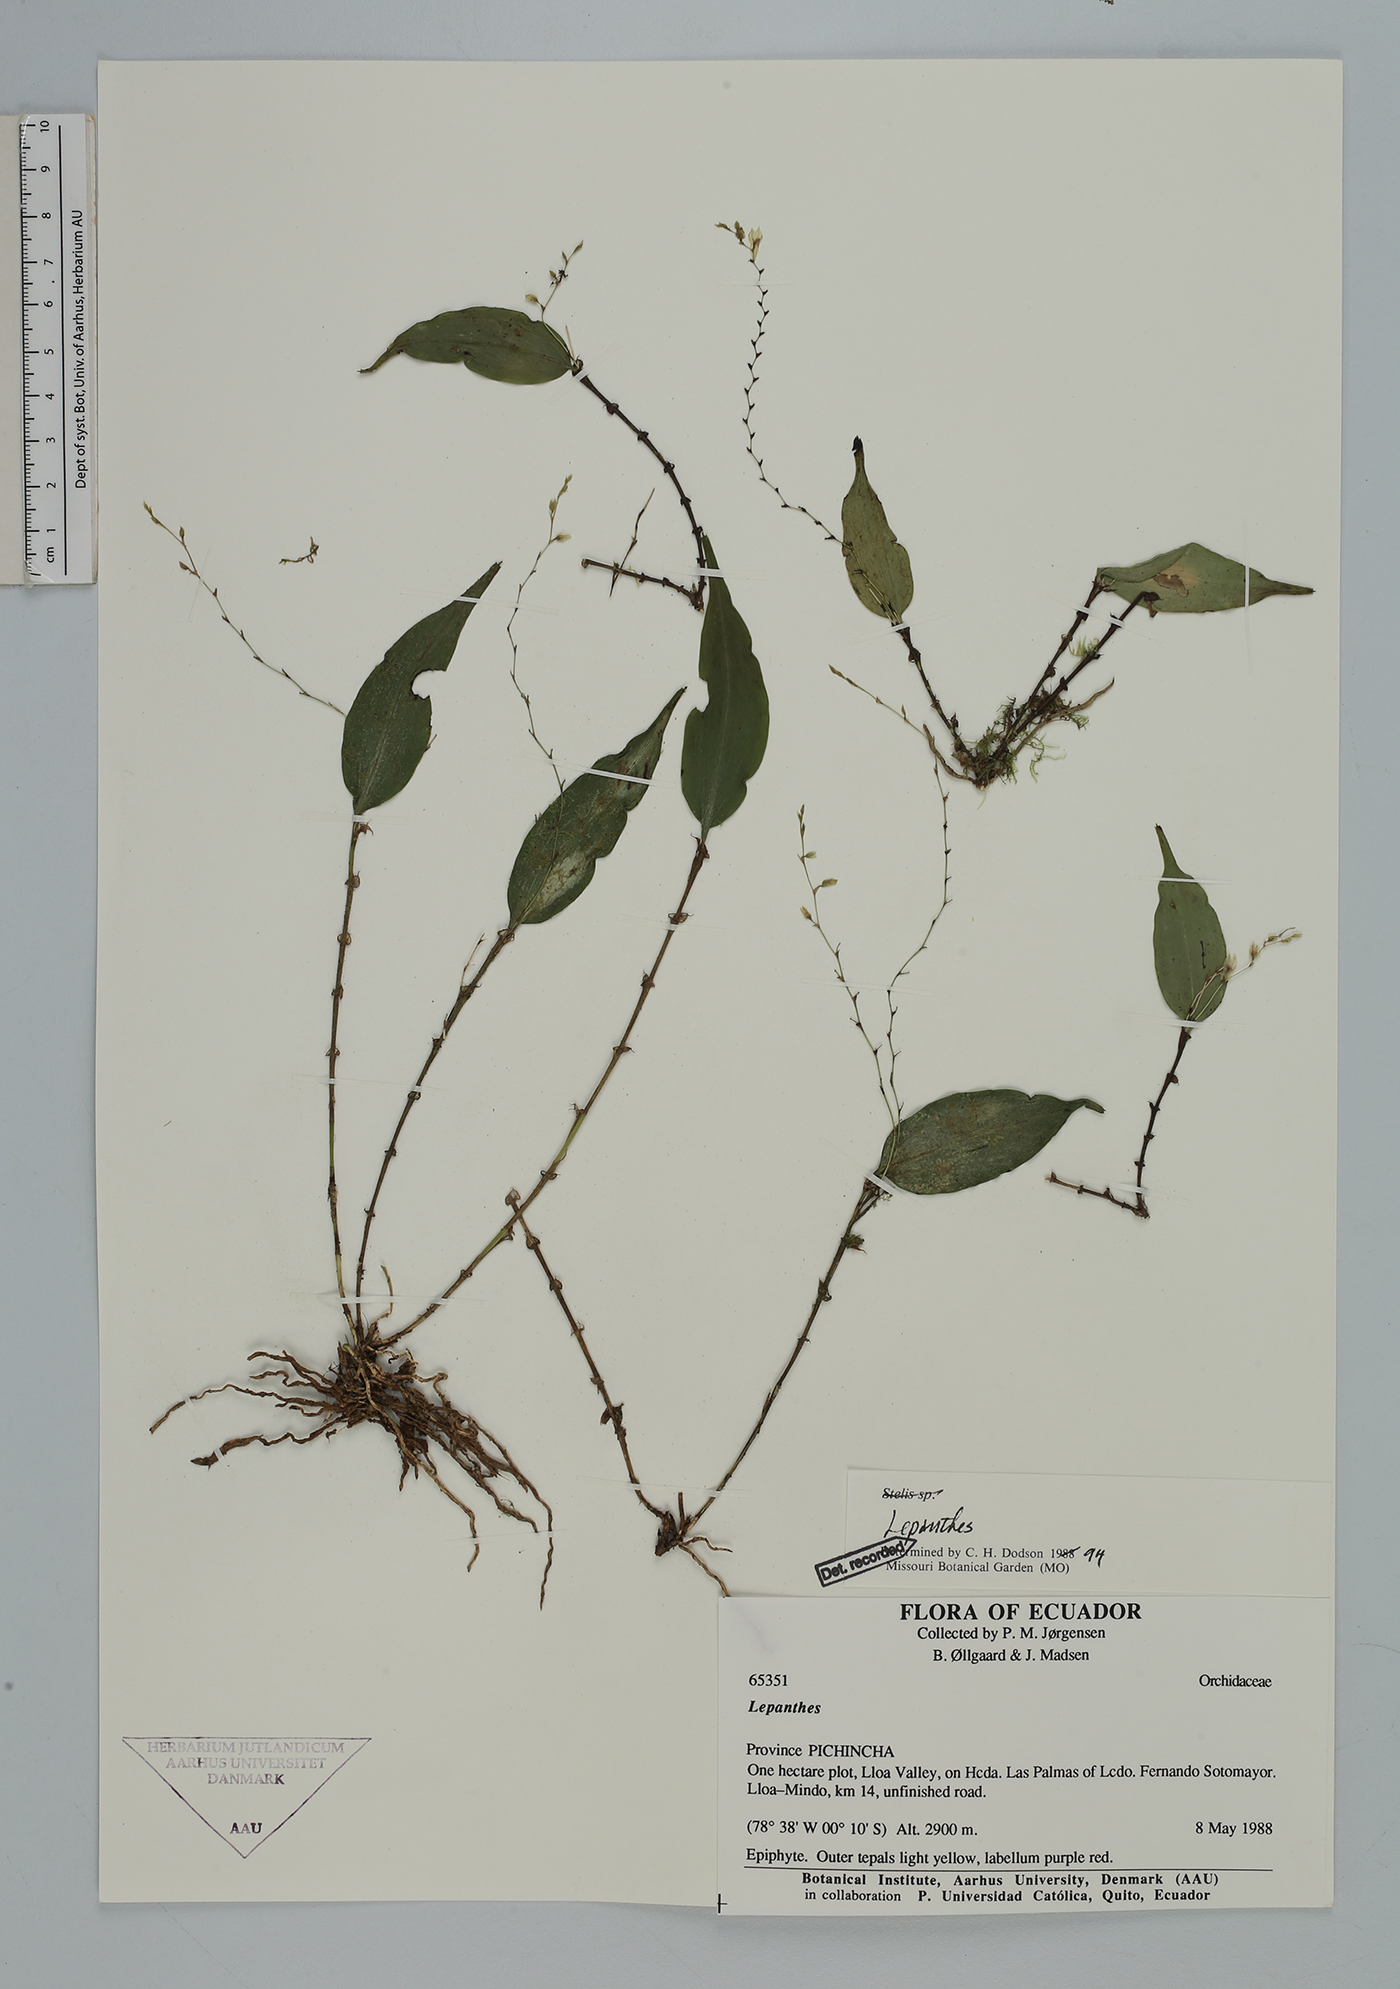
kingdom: Plantae
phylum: Tracheophyta
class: Liliopsida
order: Asparagales
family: Orchidaceae
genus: Lepanthes
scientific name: Lepanthes
